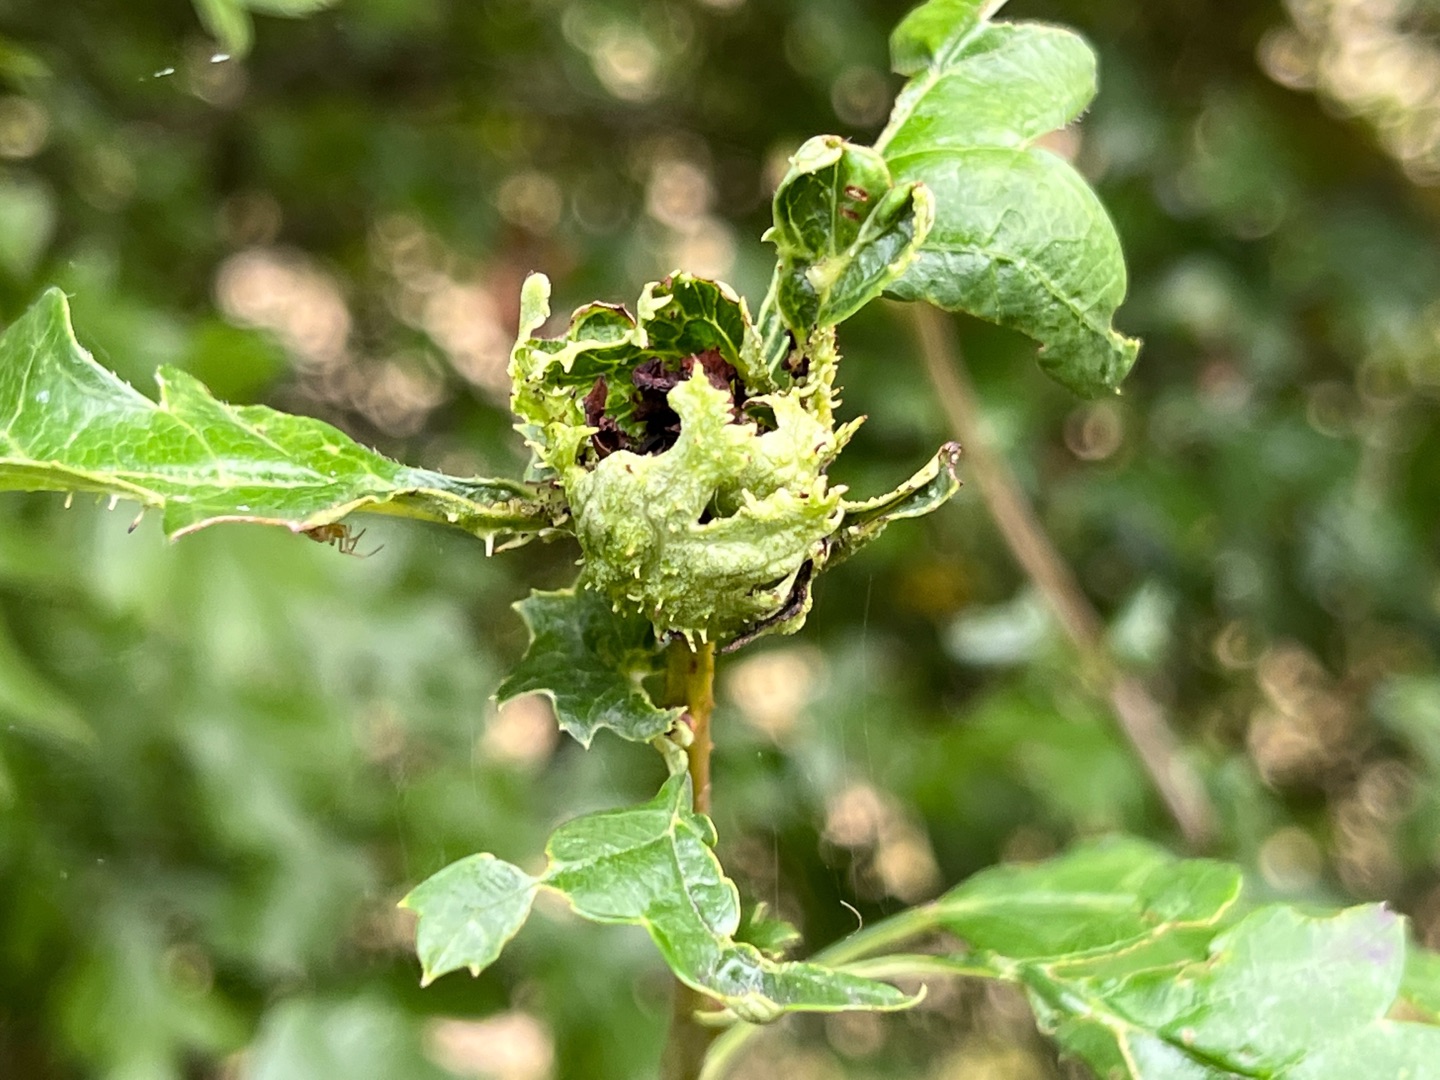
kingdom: Animalia
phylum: Arthropoda
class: Insecta
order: Diptera
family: Cecidomyiidae
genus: Dasineura
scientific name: Dasineura crataegi
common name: Tjørnerosetgalmyg
